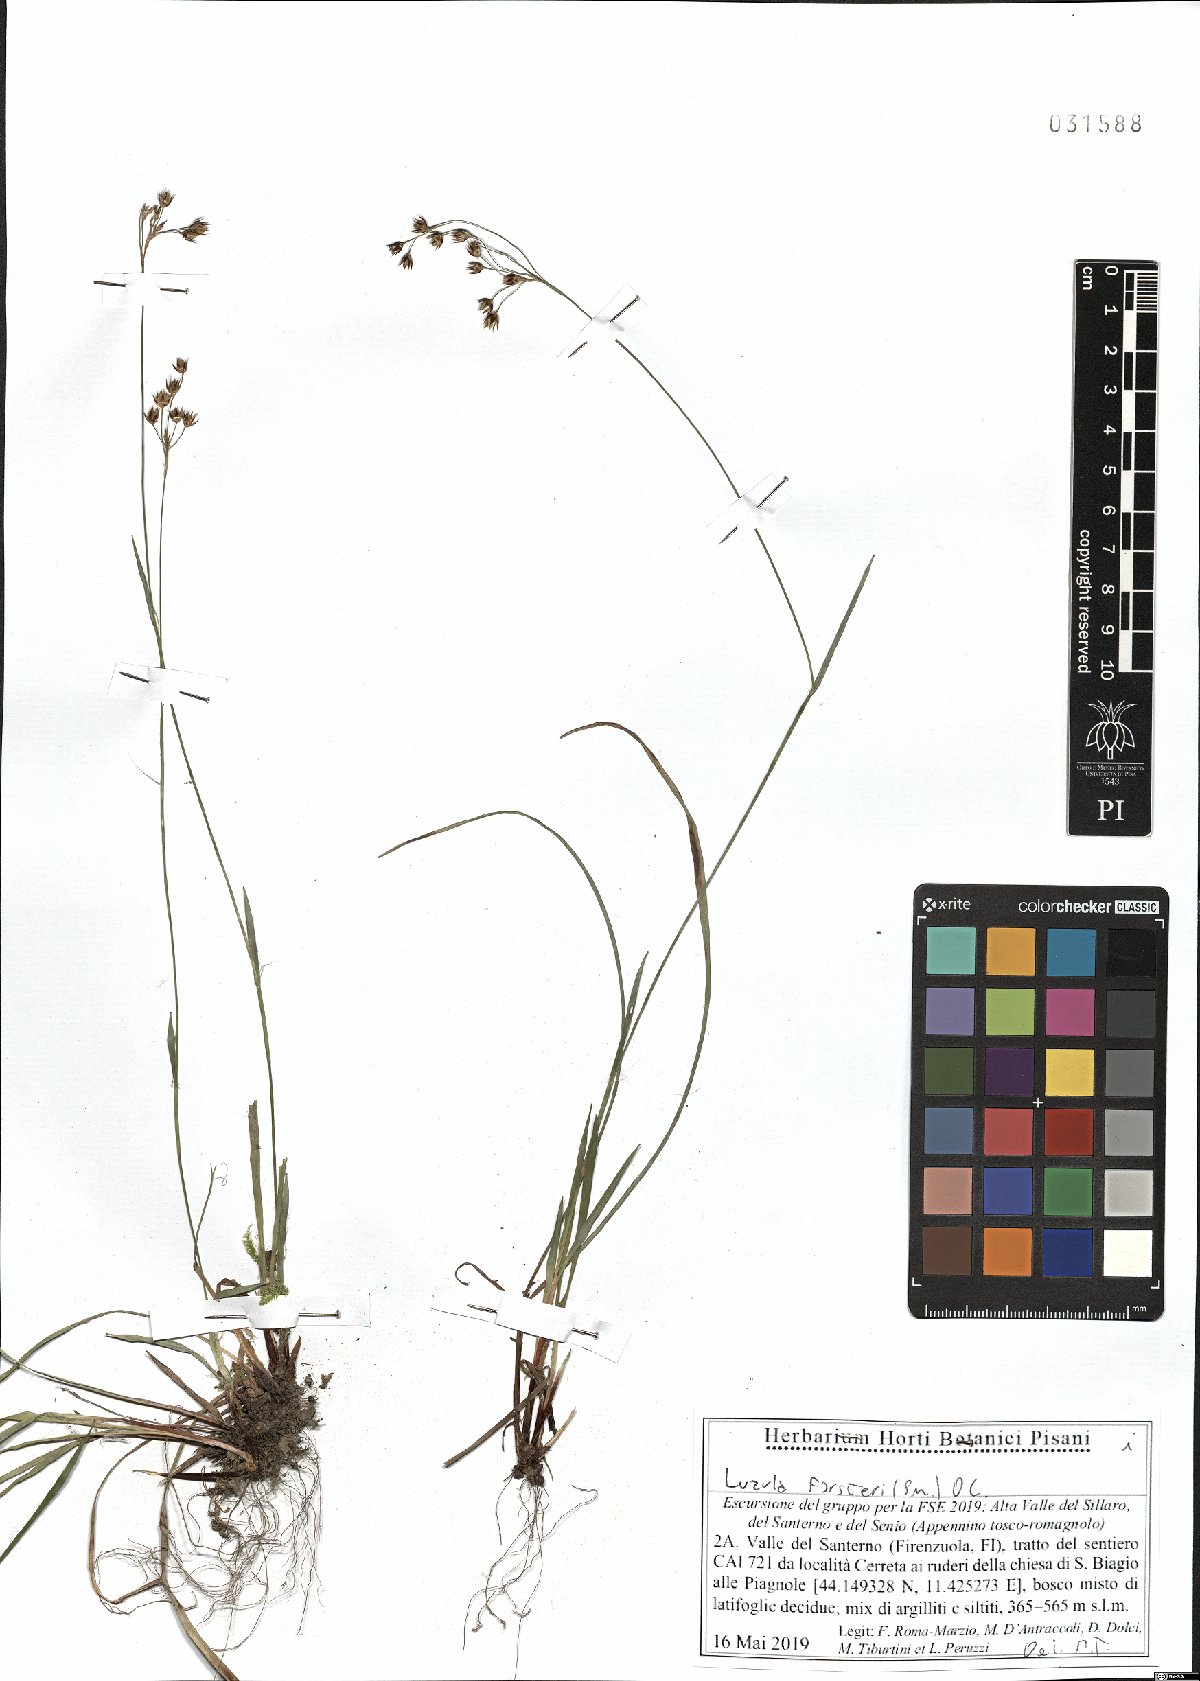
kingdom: Plantae
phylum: Tracheophyta
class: Liliopsida
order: Poales
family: Juncaceae
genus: Luzula
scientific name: Luzula forsteri
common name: Southern wood-rush
